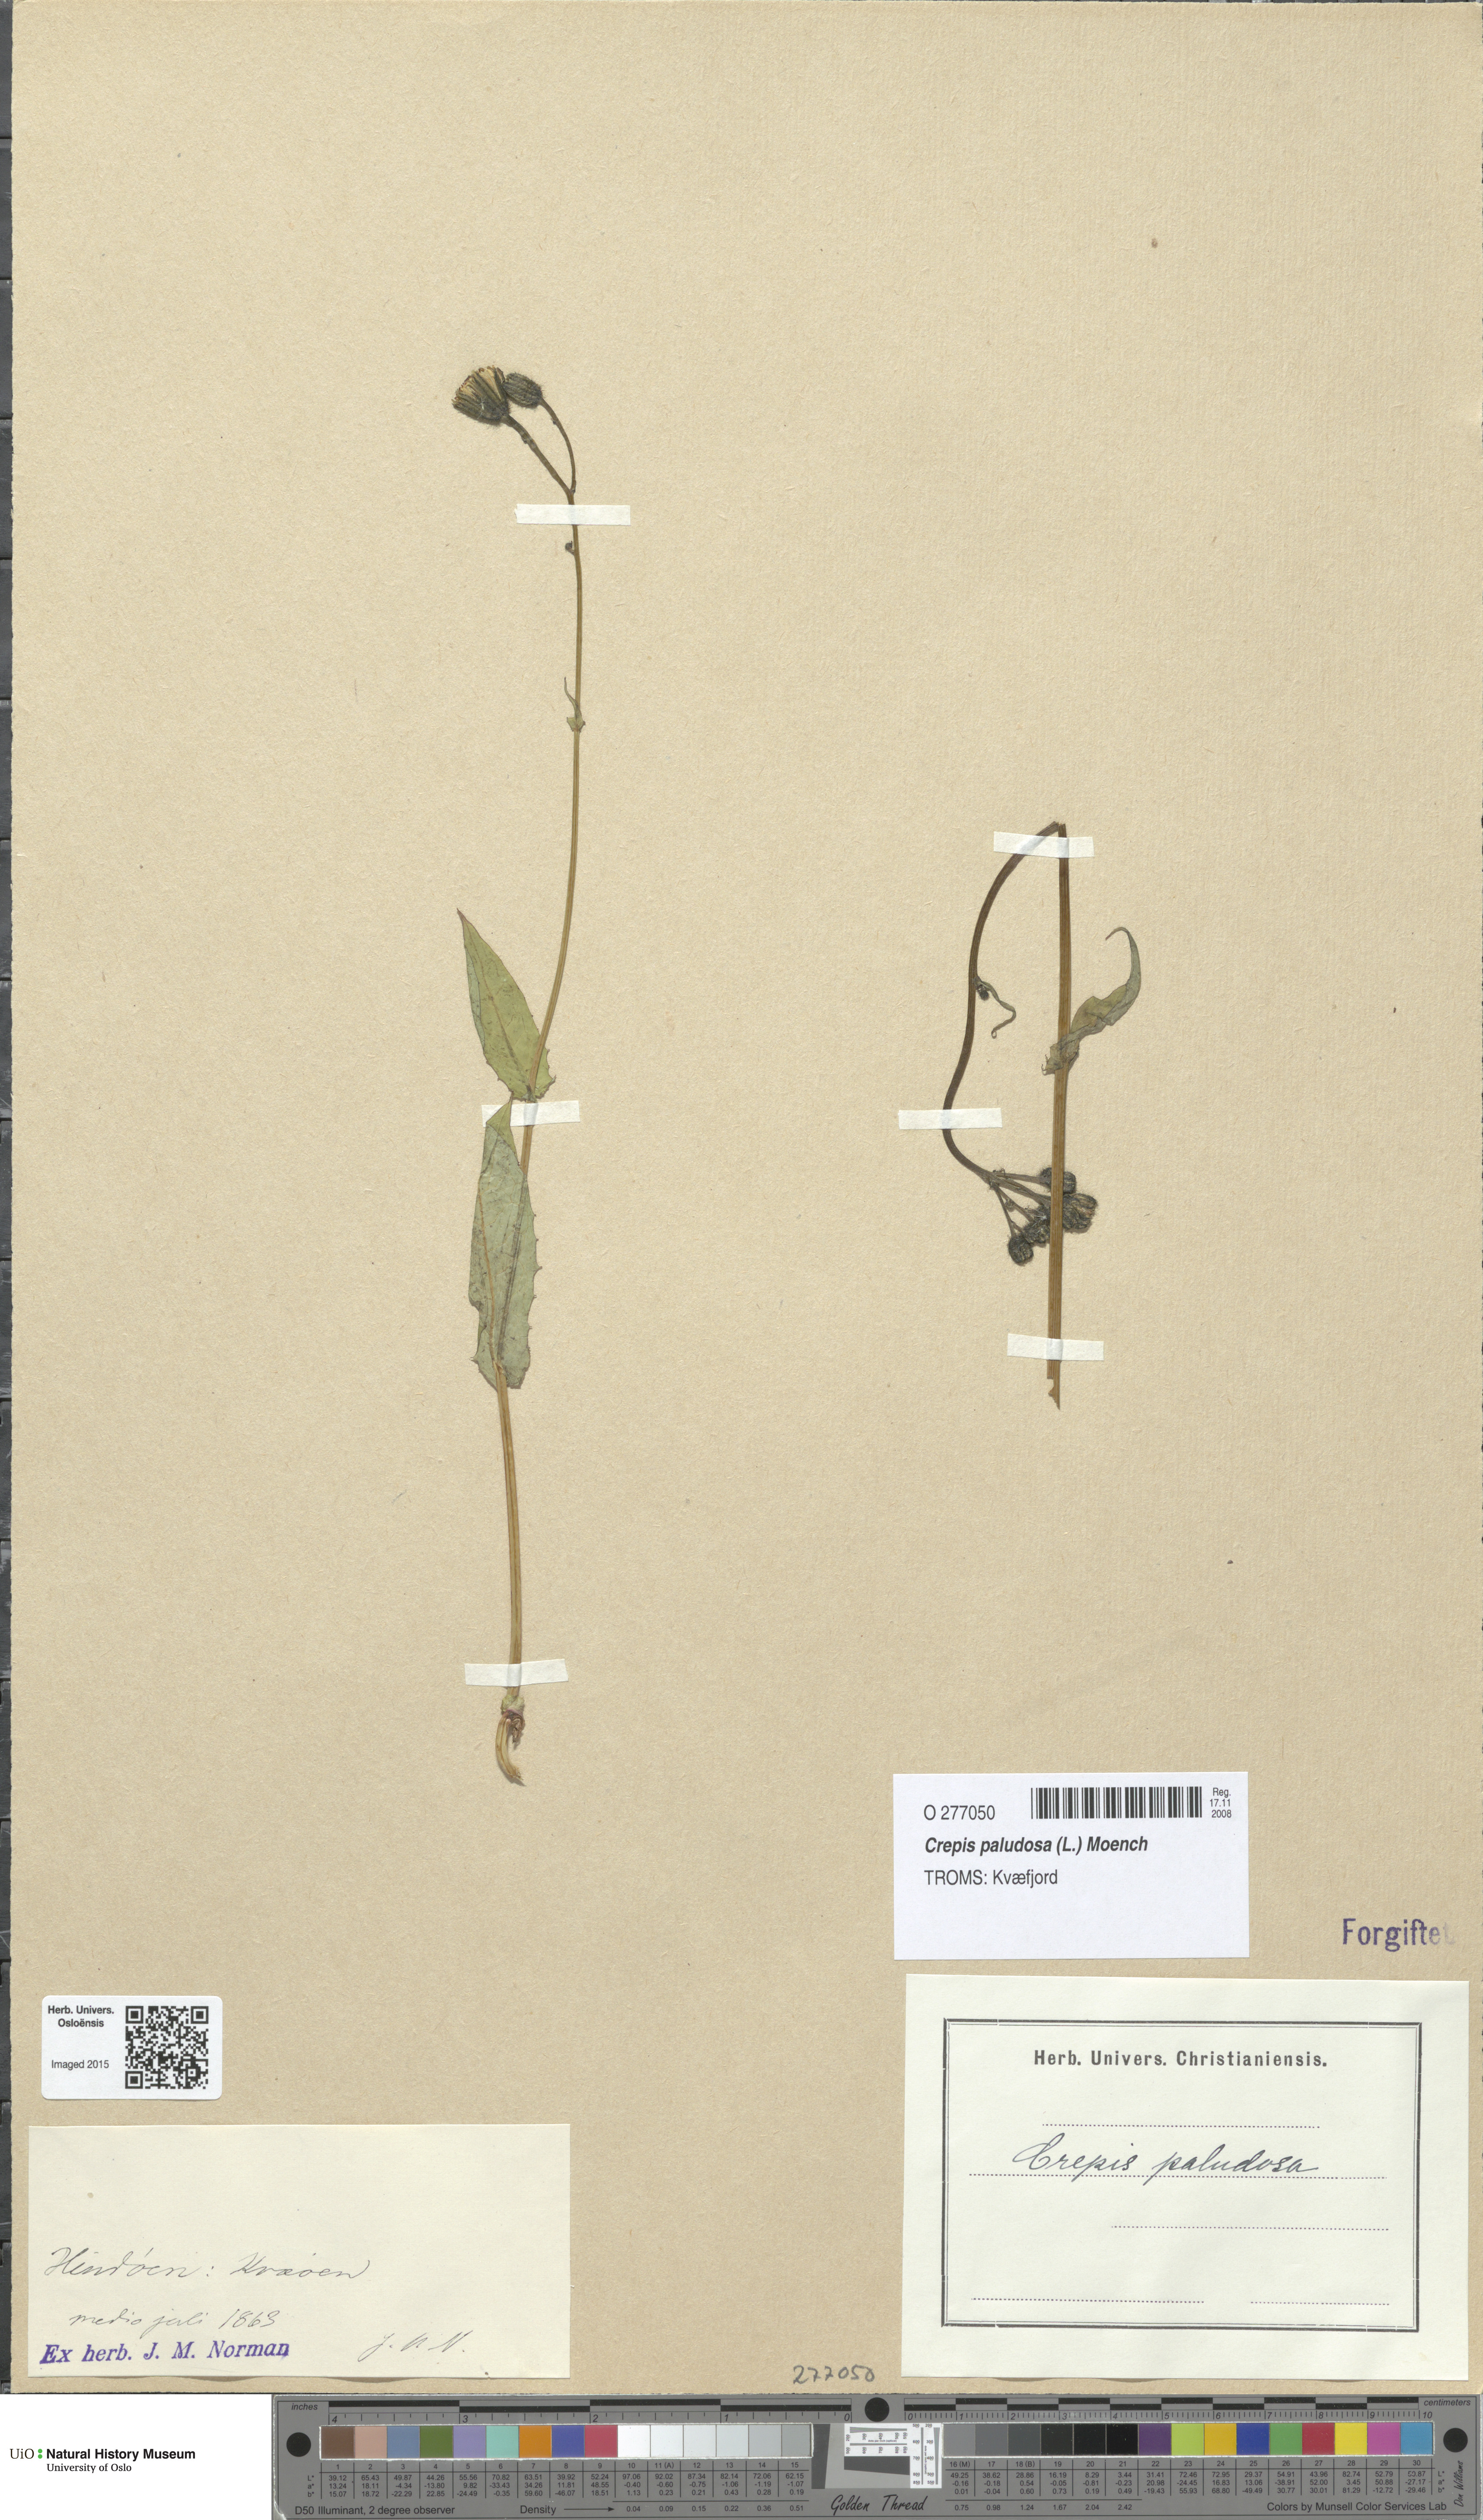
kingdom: Plantae
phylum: Tracheophyta
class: Magnoliopsida
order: Asterales
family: Asteraceae
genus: Crepis
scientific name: Crepis paludosa
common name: Marsh hawk's-beard
